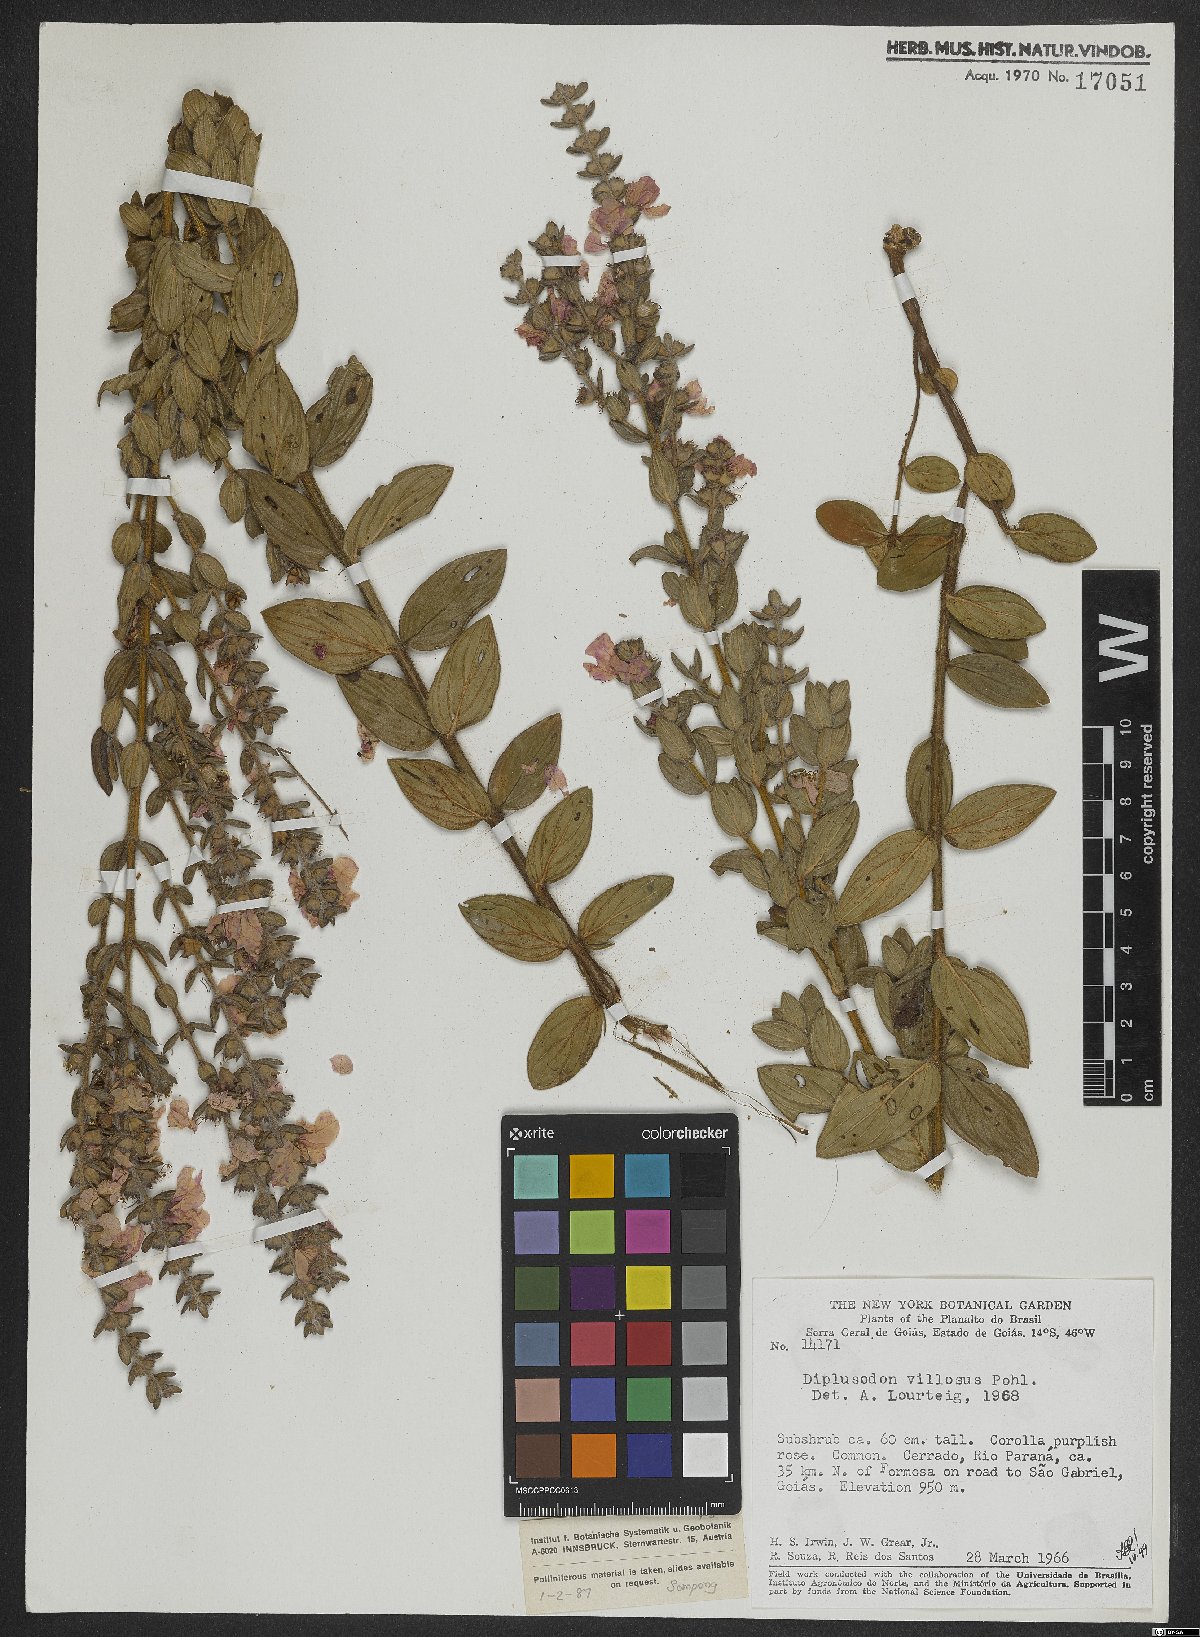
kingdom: Plantae
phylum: Tracheophyta
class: Magnoliopsida
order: Myrtales
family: Lythraceae
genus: Diplusodon
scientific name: Diplusodon villosus
